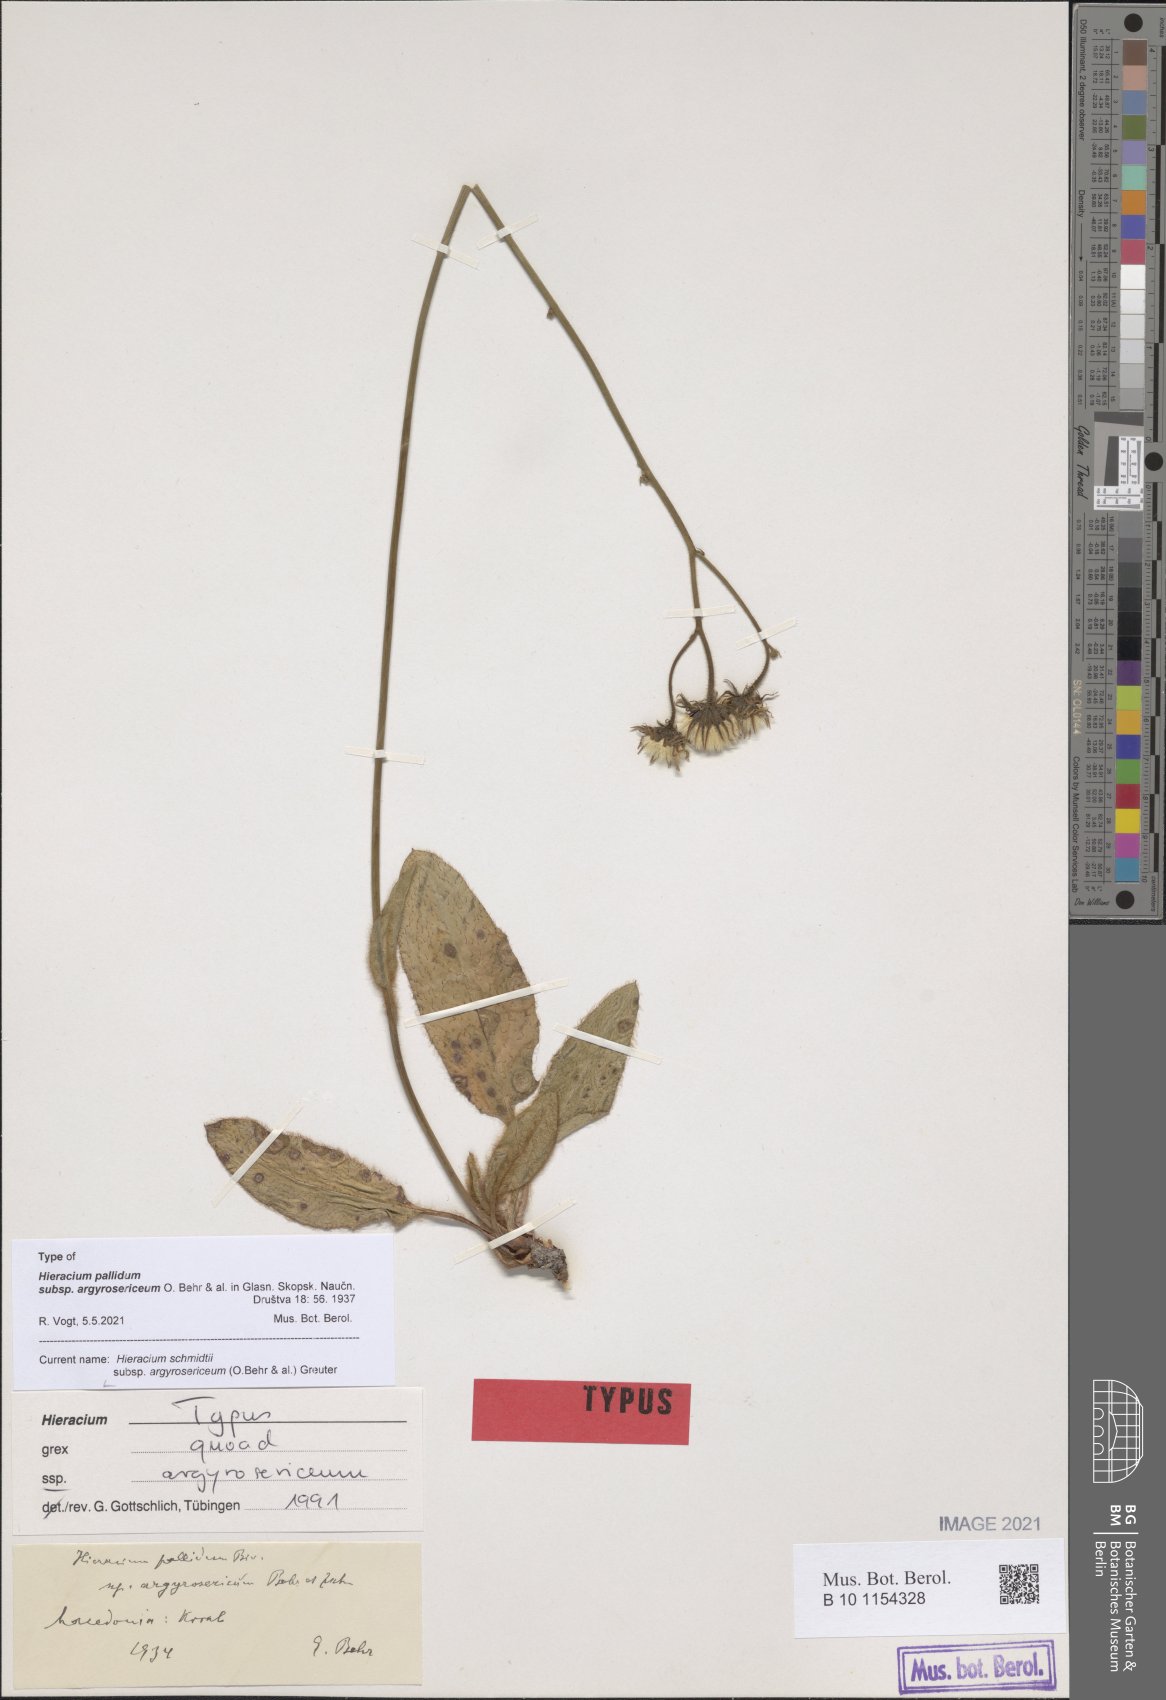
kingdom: Plantae
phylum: Tracheophyta
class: Magnoliopsida
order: Asterales
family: Asteraceae
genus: Hieracium
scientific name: Hieracium schmidtii
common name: Schmidt's hawkweed
